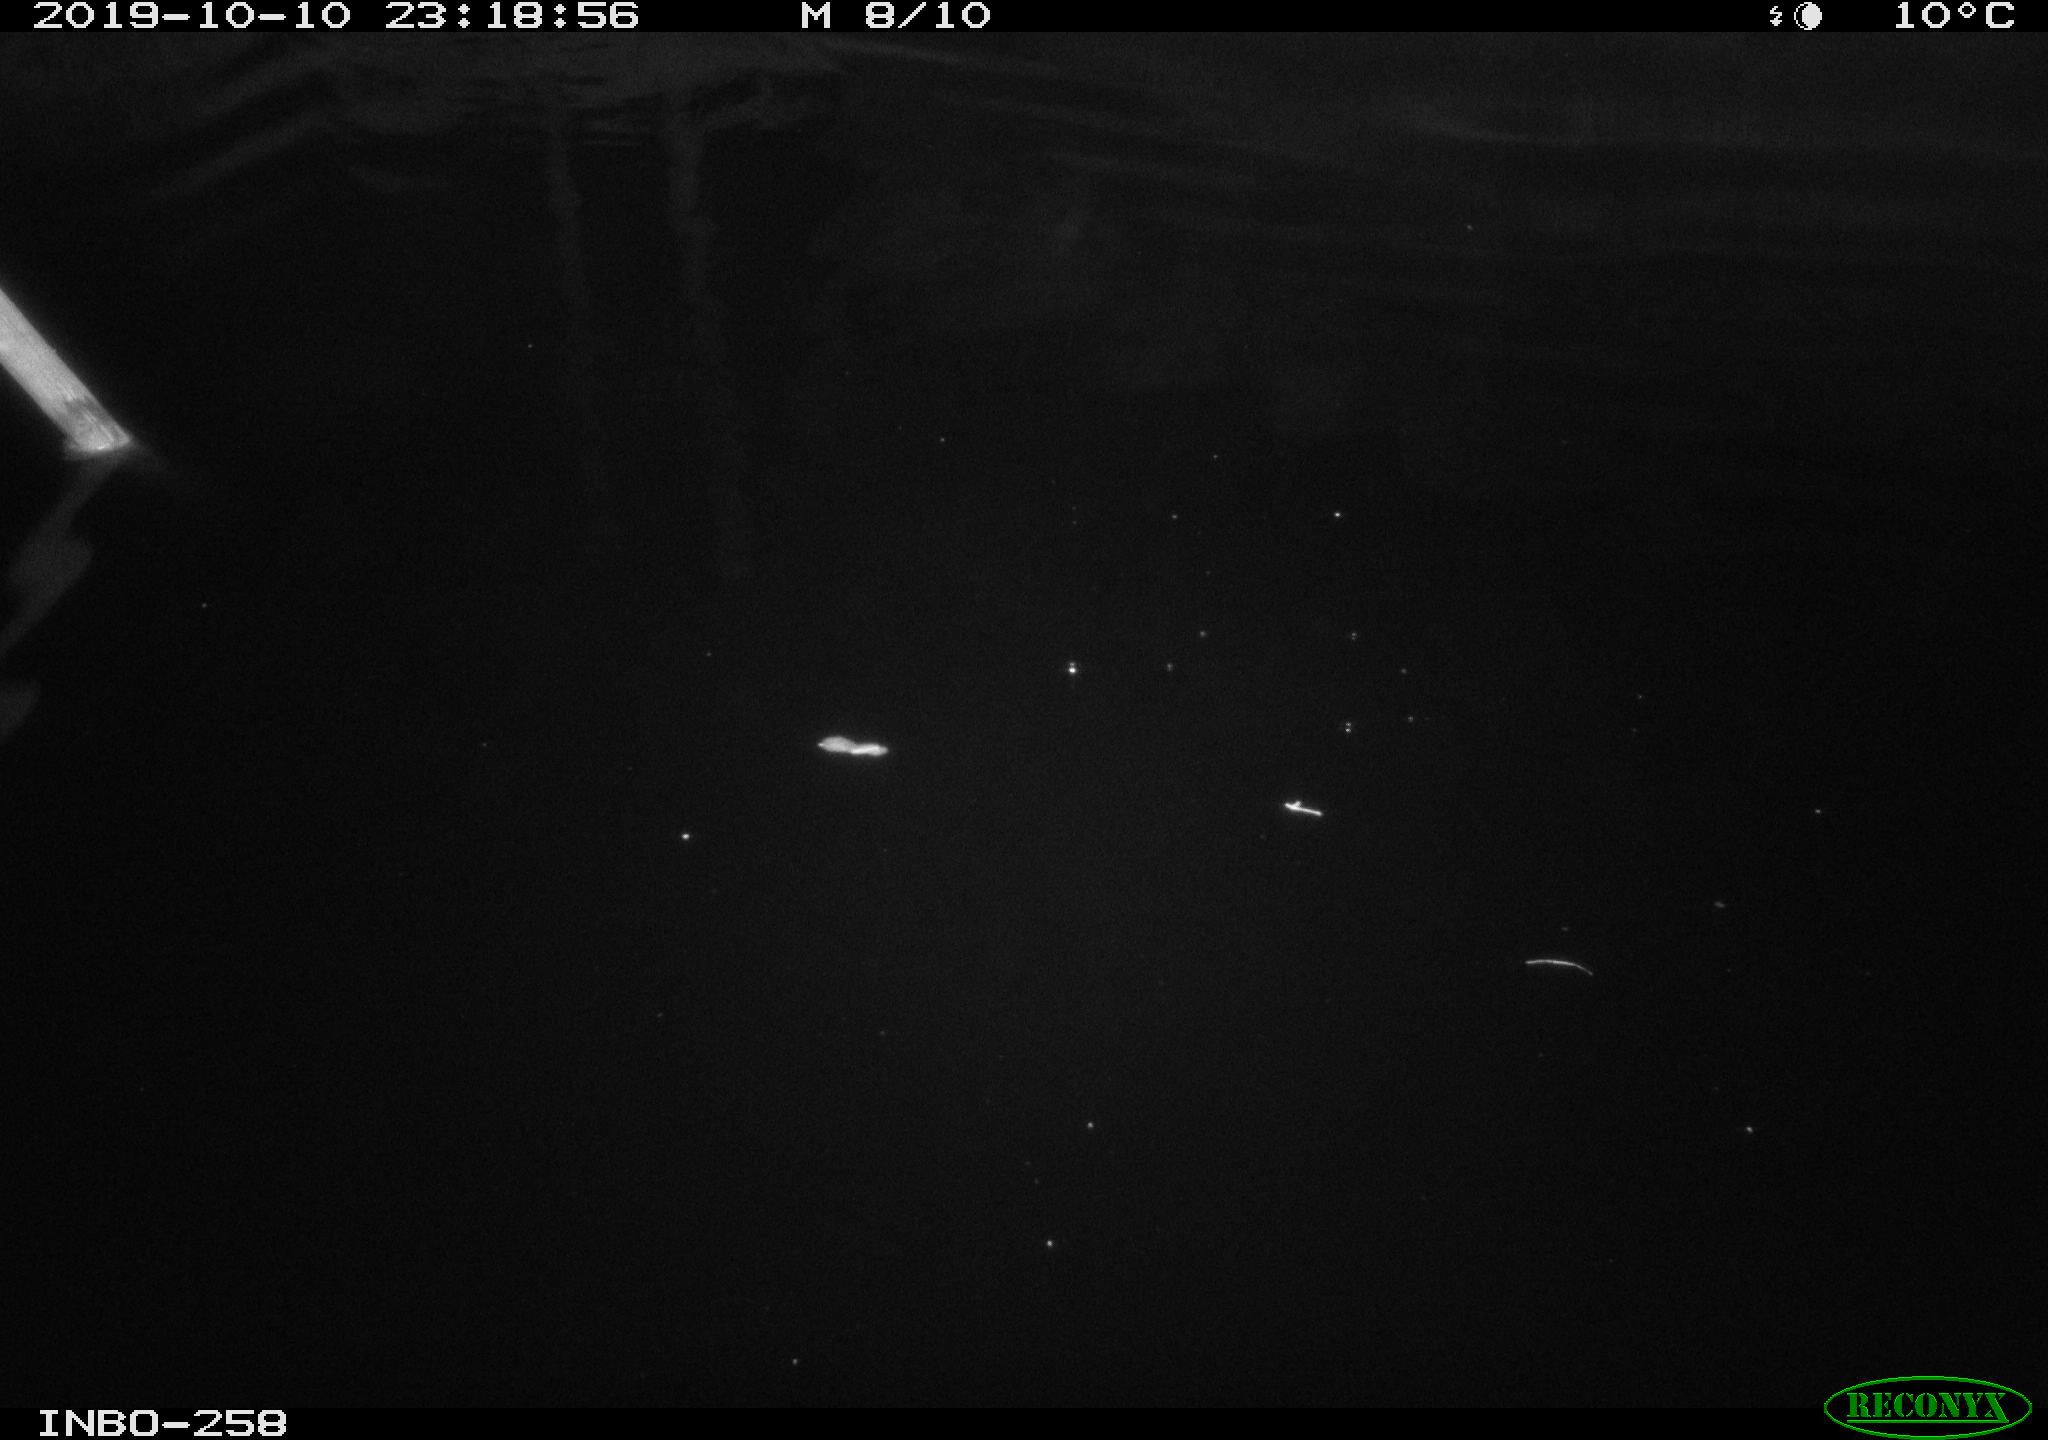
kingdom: Animalia
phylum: Chordata
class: Mammalia
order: Rodentia
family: Muridae
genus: Rattus
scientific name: Rattus norvegicus
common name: Brown rat
